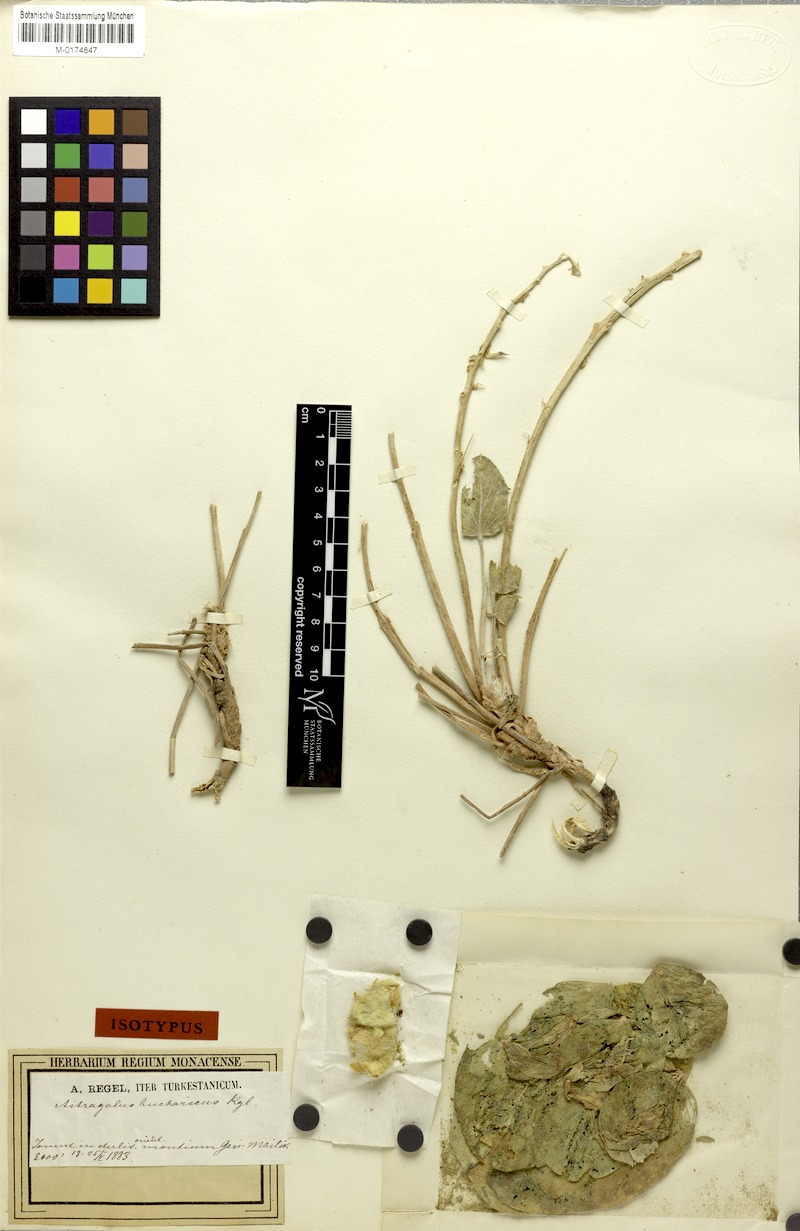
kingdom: Plantae
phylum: Tracheophyta
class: Magnoliopsida
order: Fabales
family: Fabaceae
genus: Astragalus
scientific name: Astragalus bucharicus
